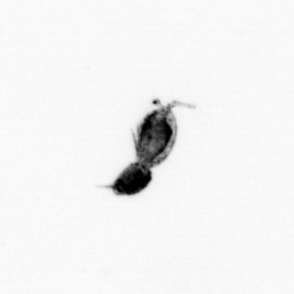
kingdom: Animalia
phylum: Arthropoda
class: Copepoda
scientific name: Copepoda
